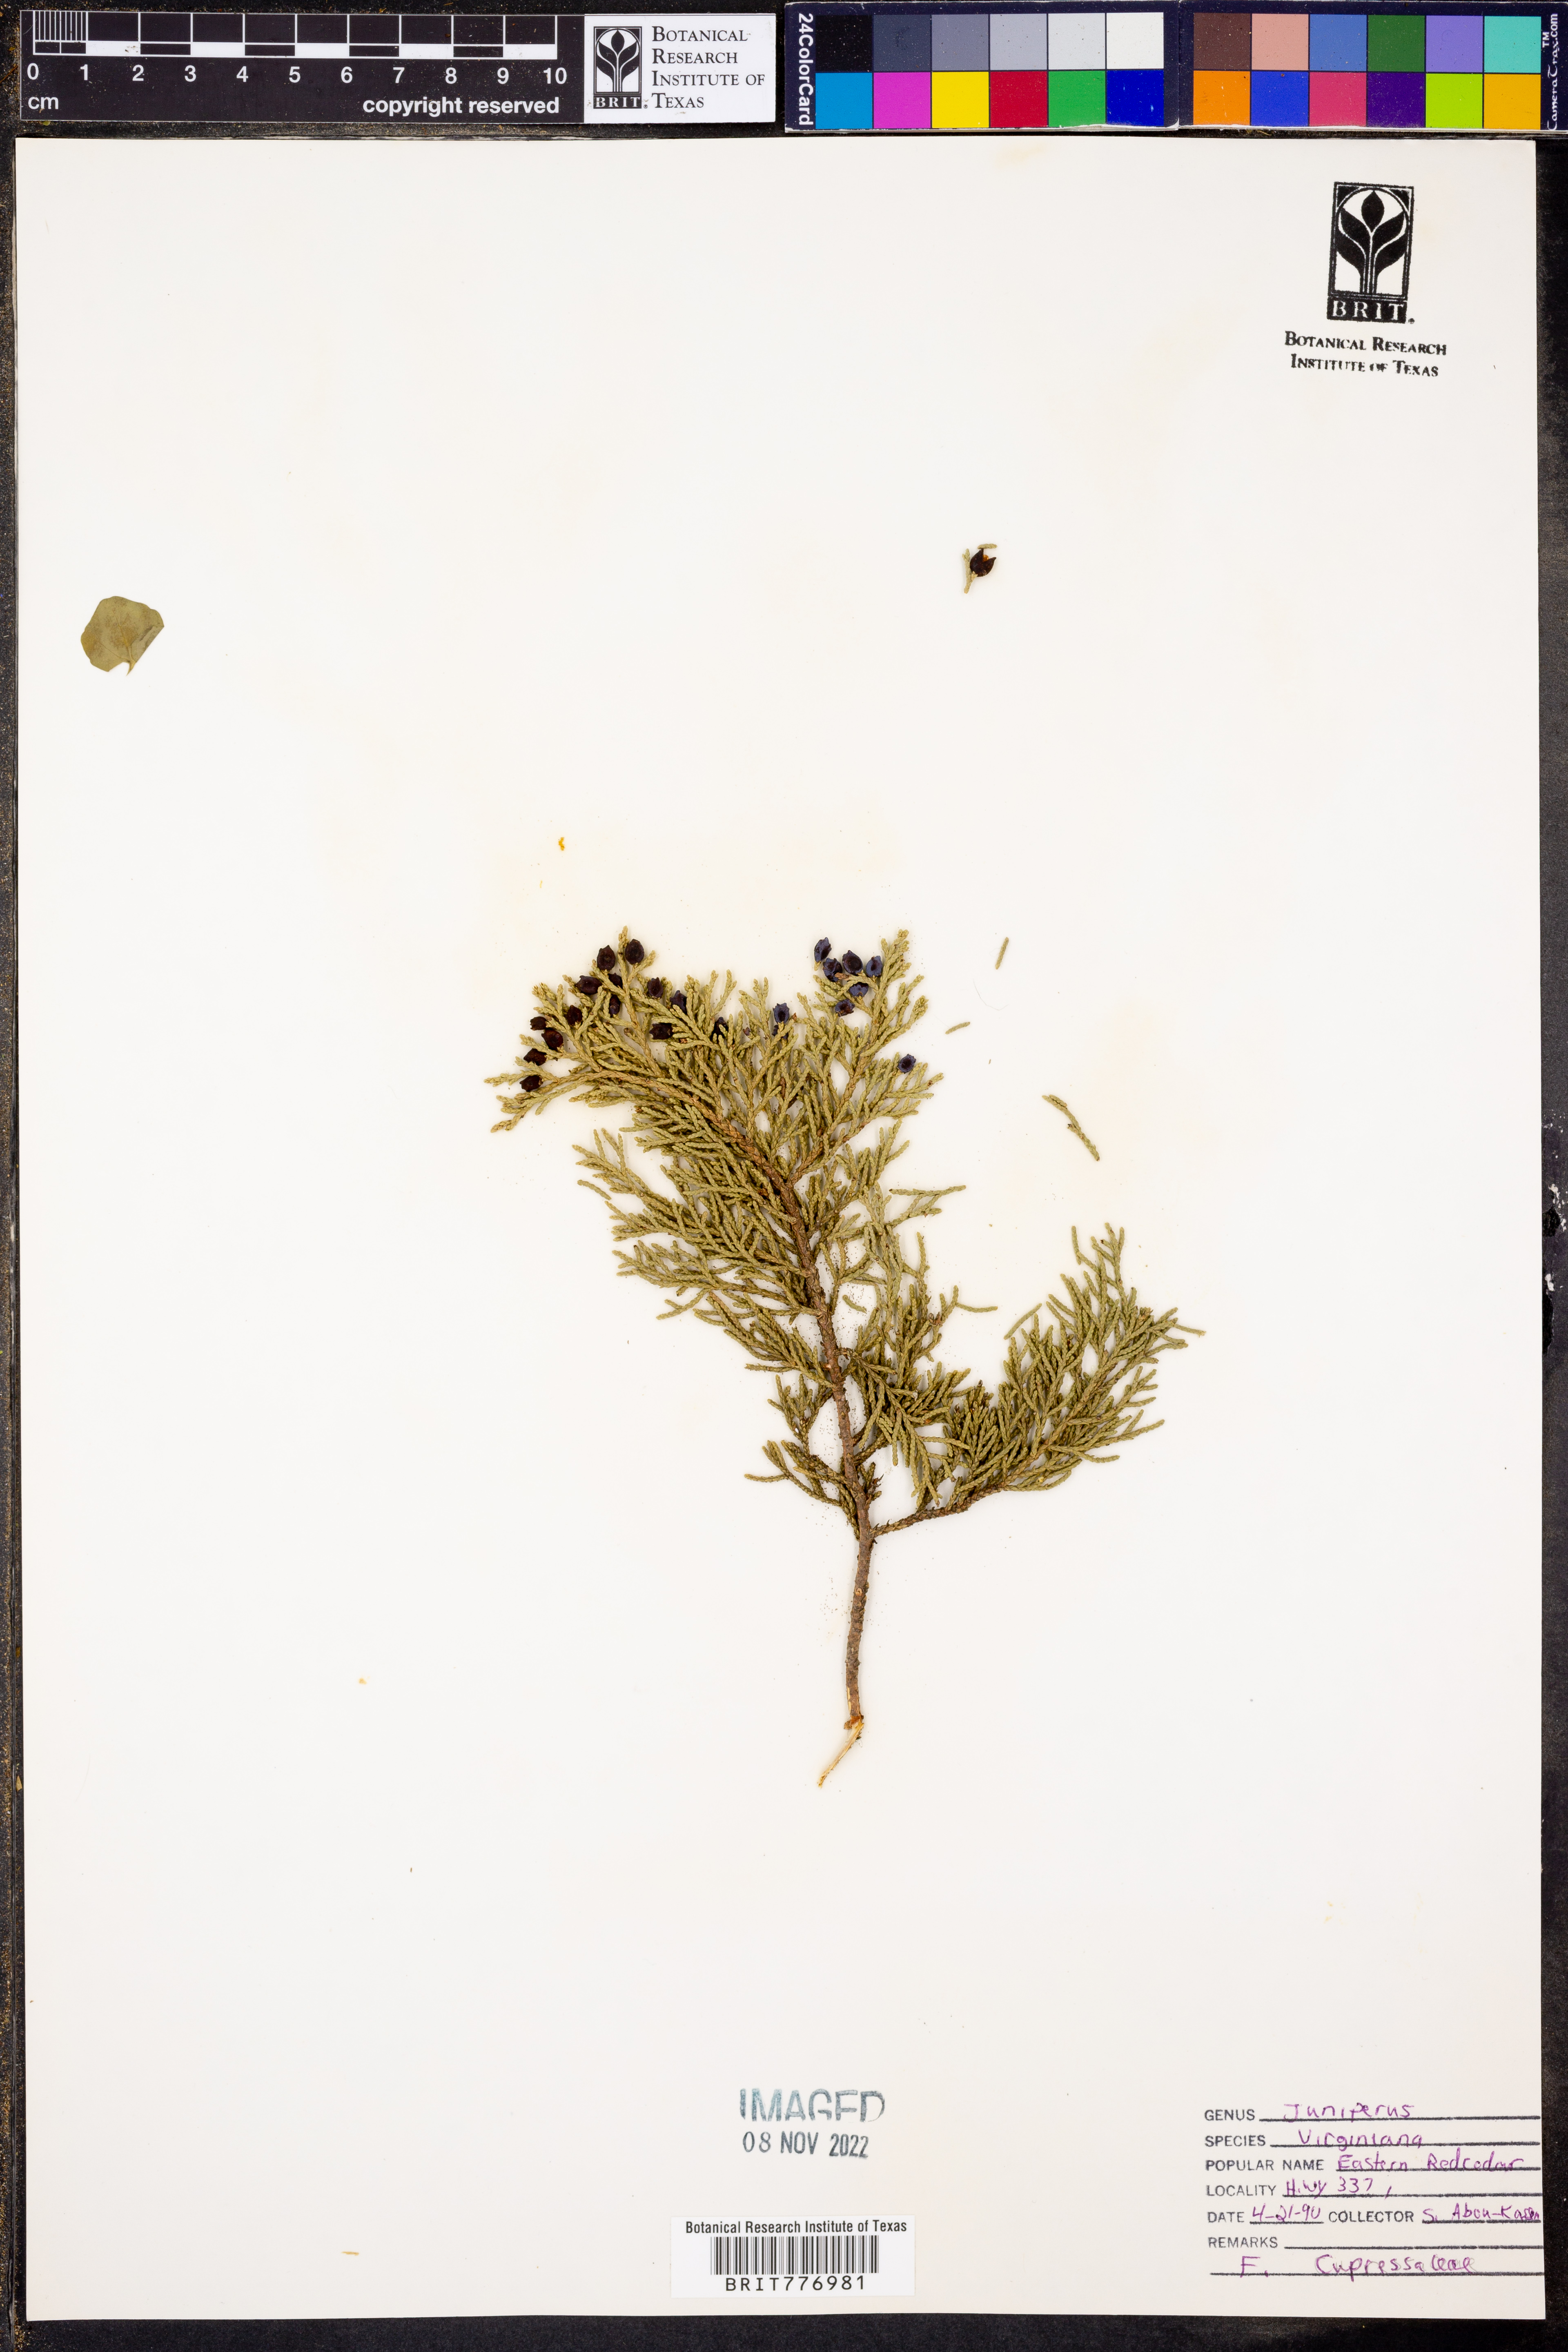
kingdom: Plantae
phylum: Tracheophyta
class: Pinopsida
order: Pinales
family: Cupressaceae
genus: Juniperus
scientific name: Juniperus virginiana
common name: Red juniper
